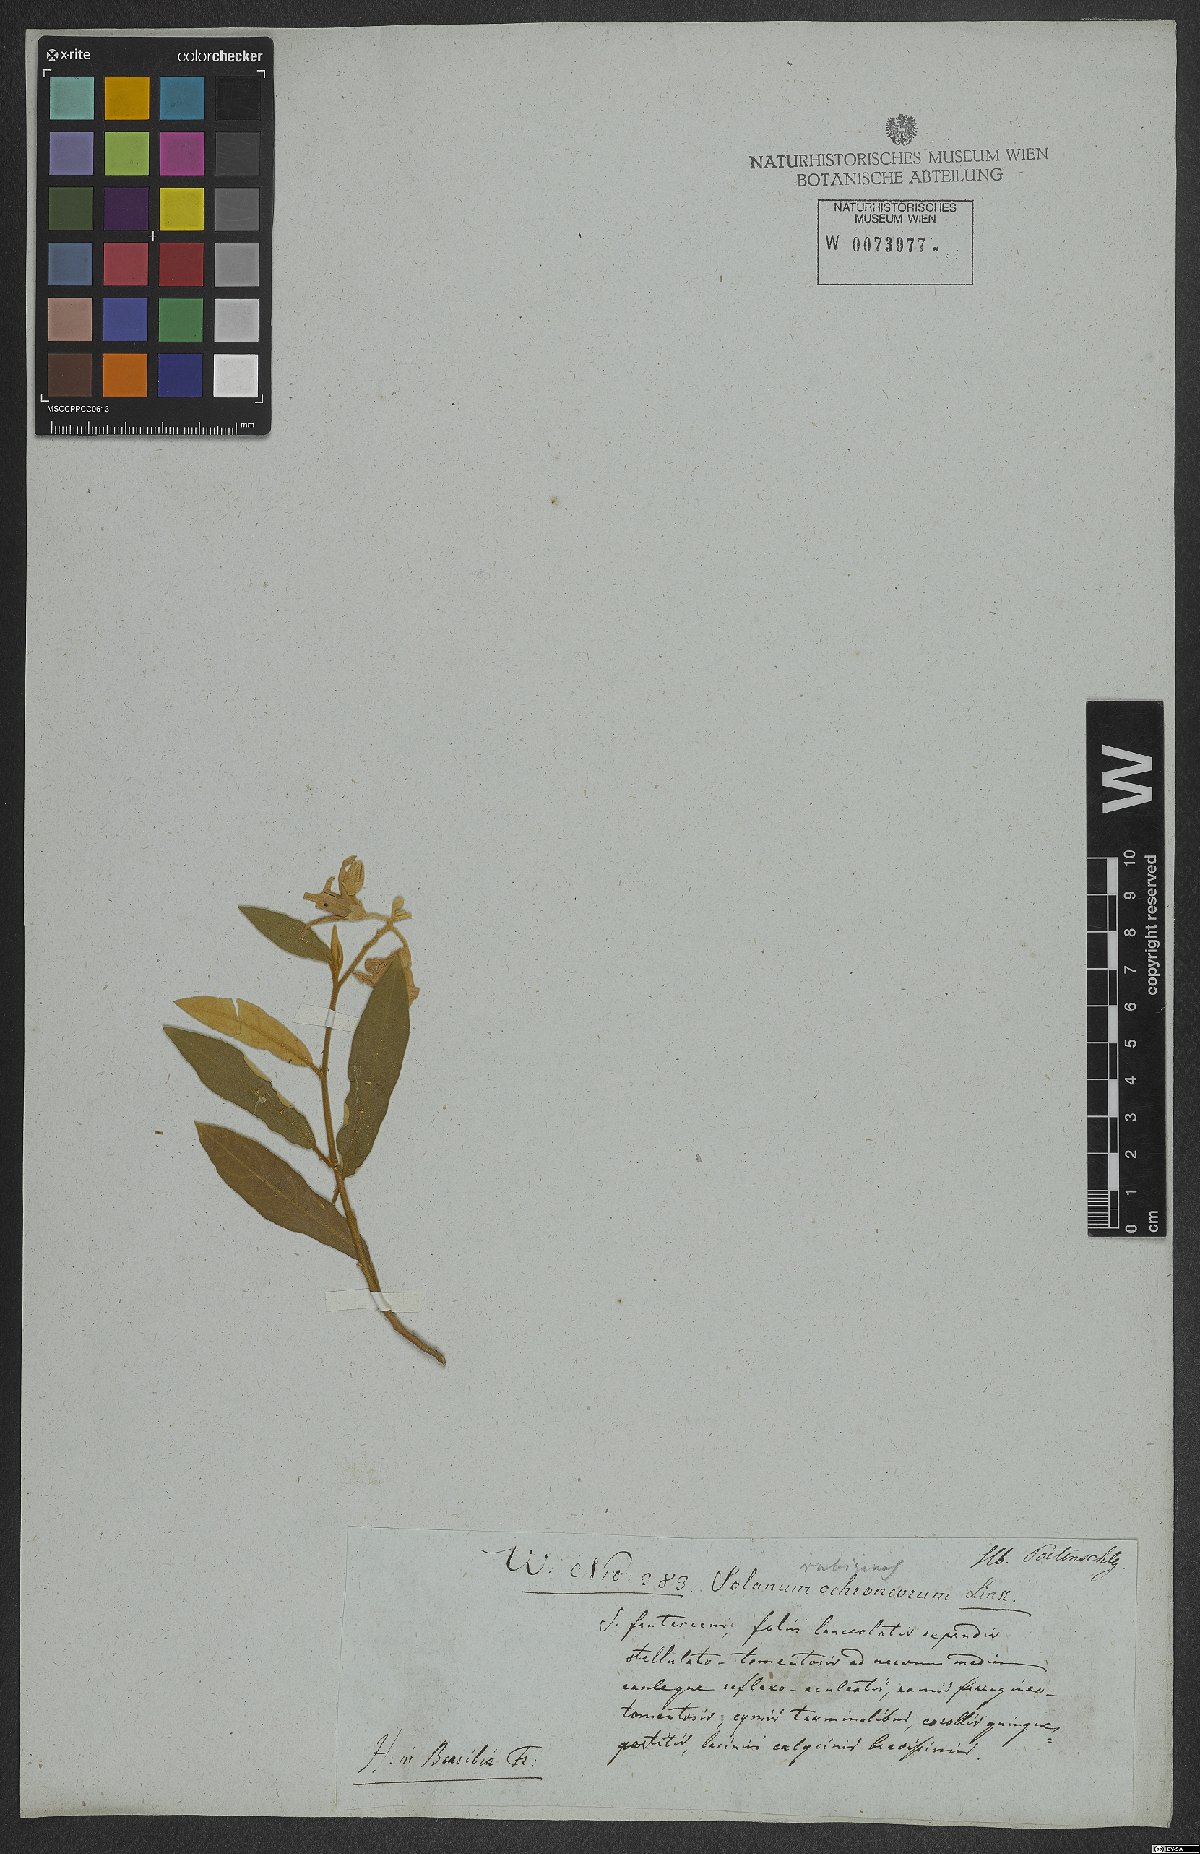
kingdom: Plantae
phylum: Tracheophyta
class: Magnoliopsida
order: Solanales
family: Solanaceae
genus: Solanum
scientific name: Solanum rubiginosum
